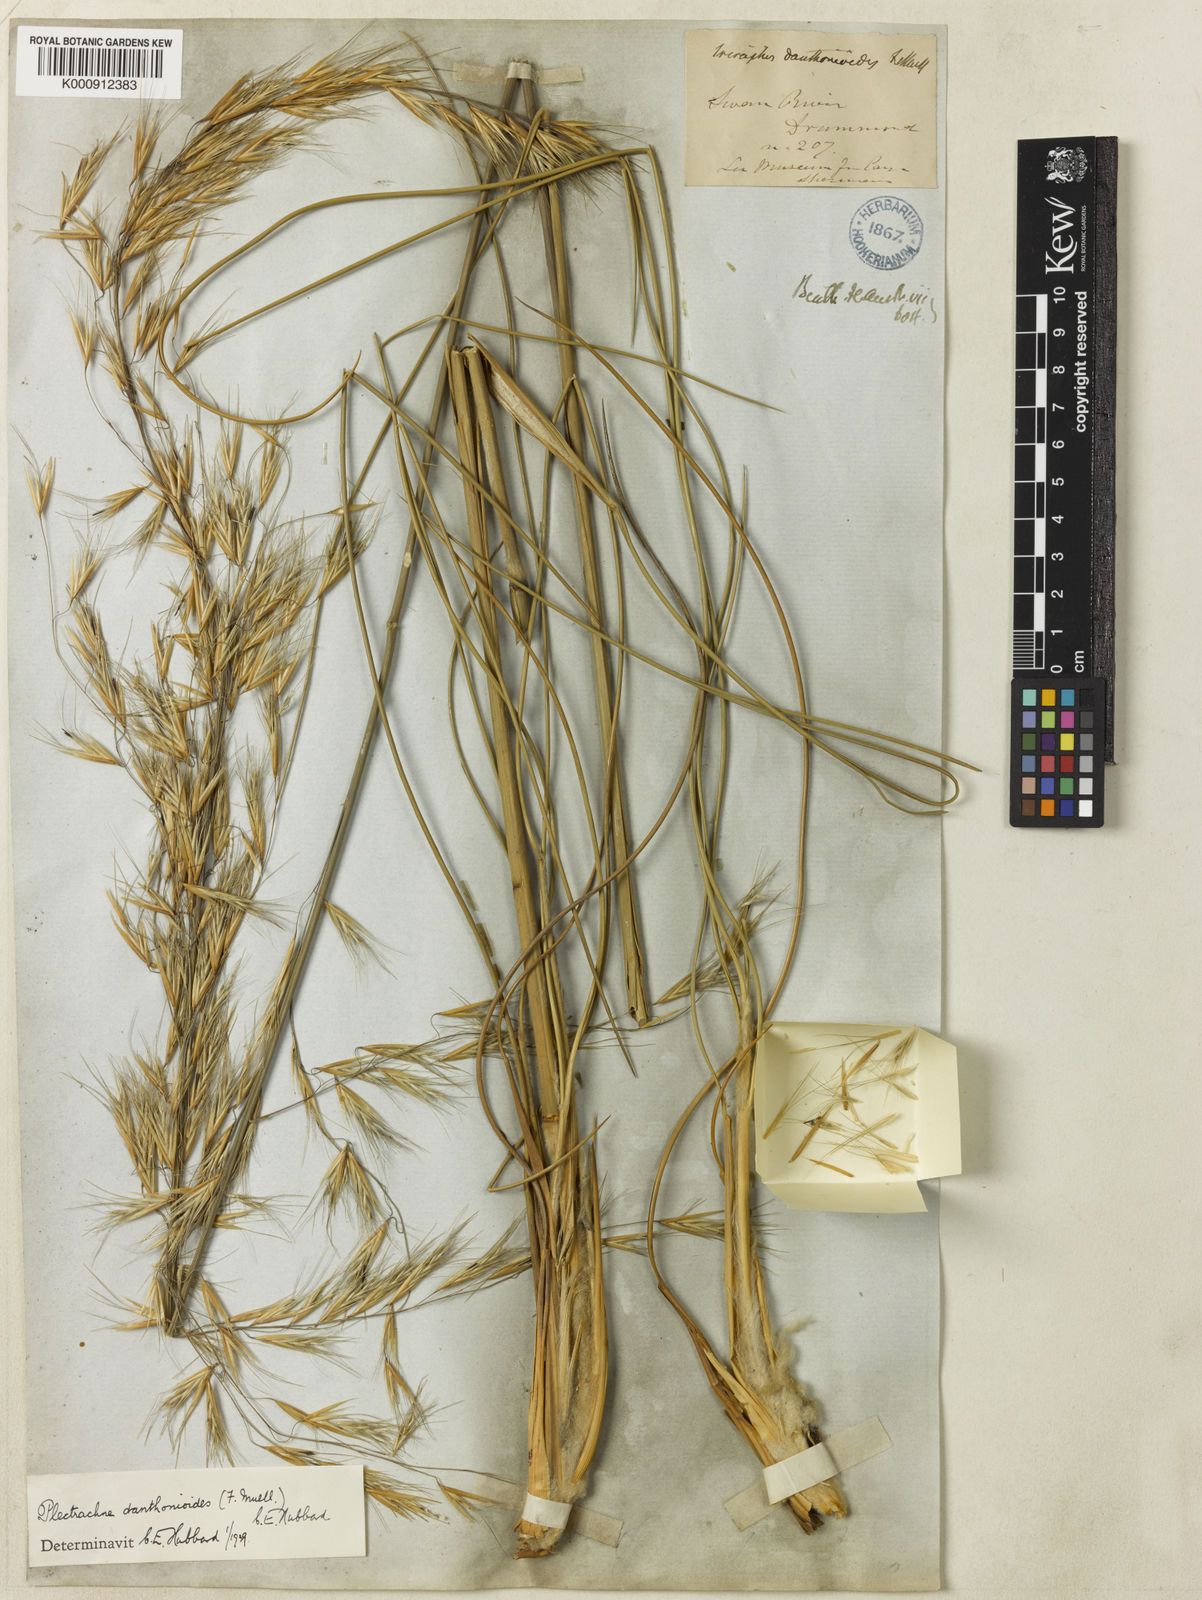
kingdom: Plantae
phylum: Tracheophyta
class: Liliopsida
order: Poales
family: Poaceae
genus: Triodia
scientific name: Triodia danthonioides
